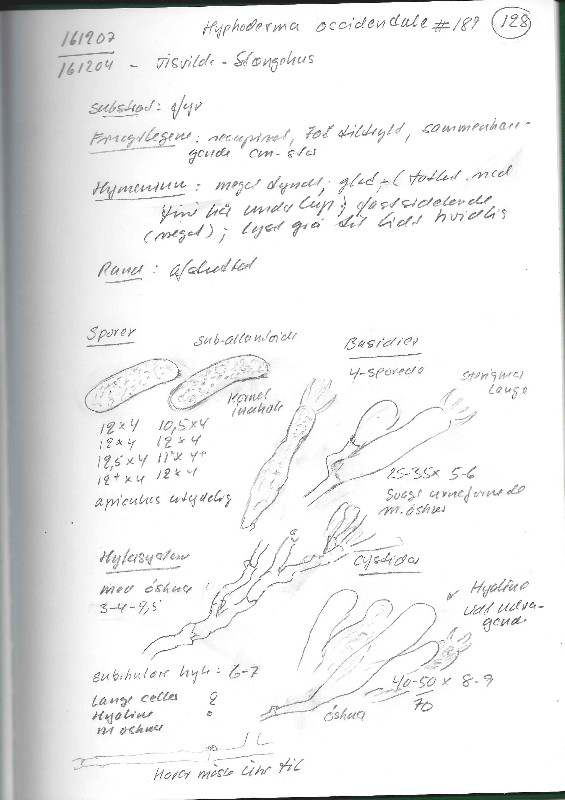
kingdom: Fungi
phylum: Basidiomycota
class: Agaricomycetes
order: Polyporales
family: Hyphodermataceae
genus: Hyphoderma
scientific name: Hyphoderma occidentale
